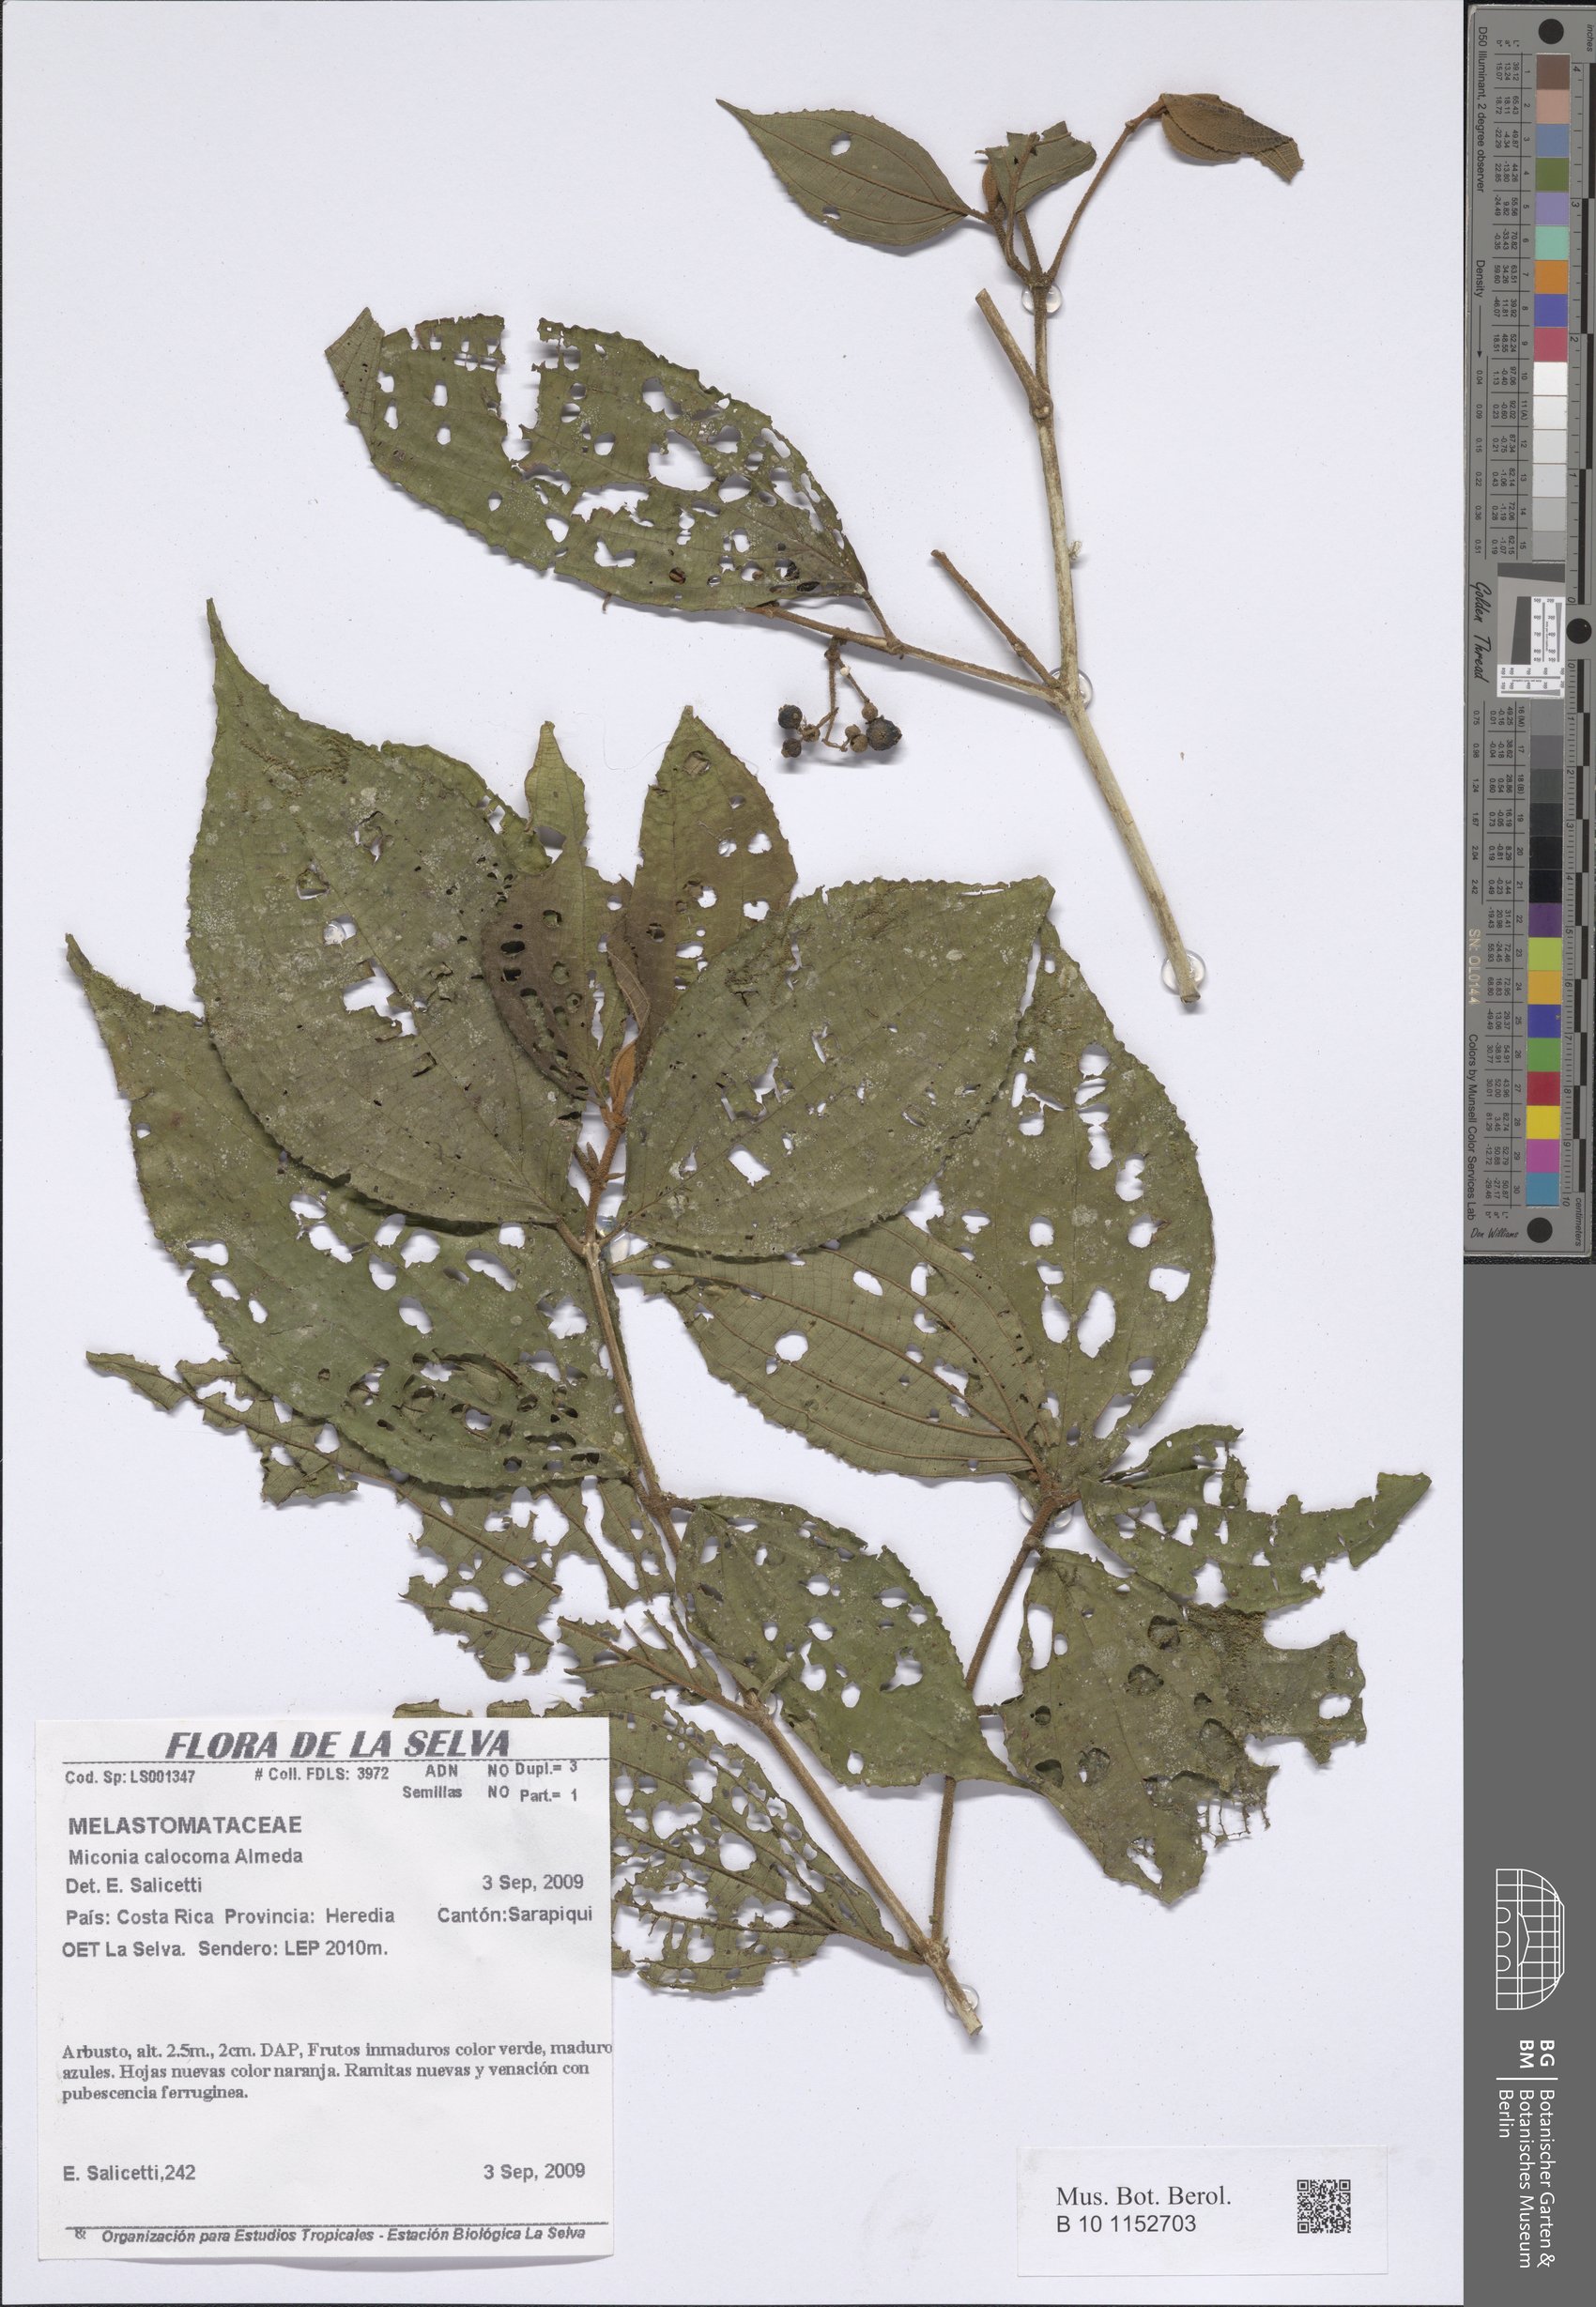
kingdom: Plantae
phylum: Tracheophyta
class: Magnoliopsida
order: Myrtales
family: Melastomataceae
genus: Miconia
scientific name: Miconia calocoma
